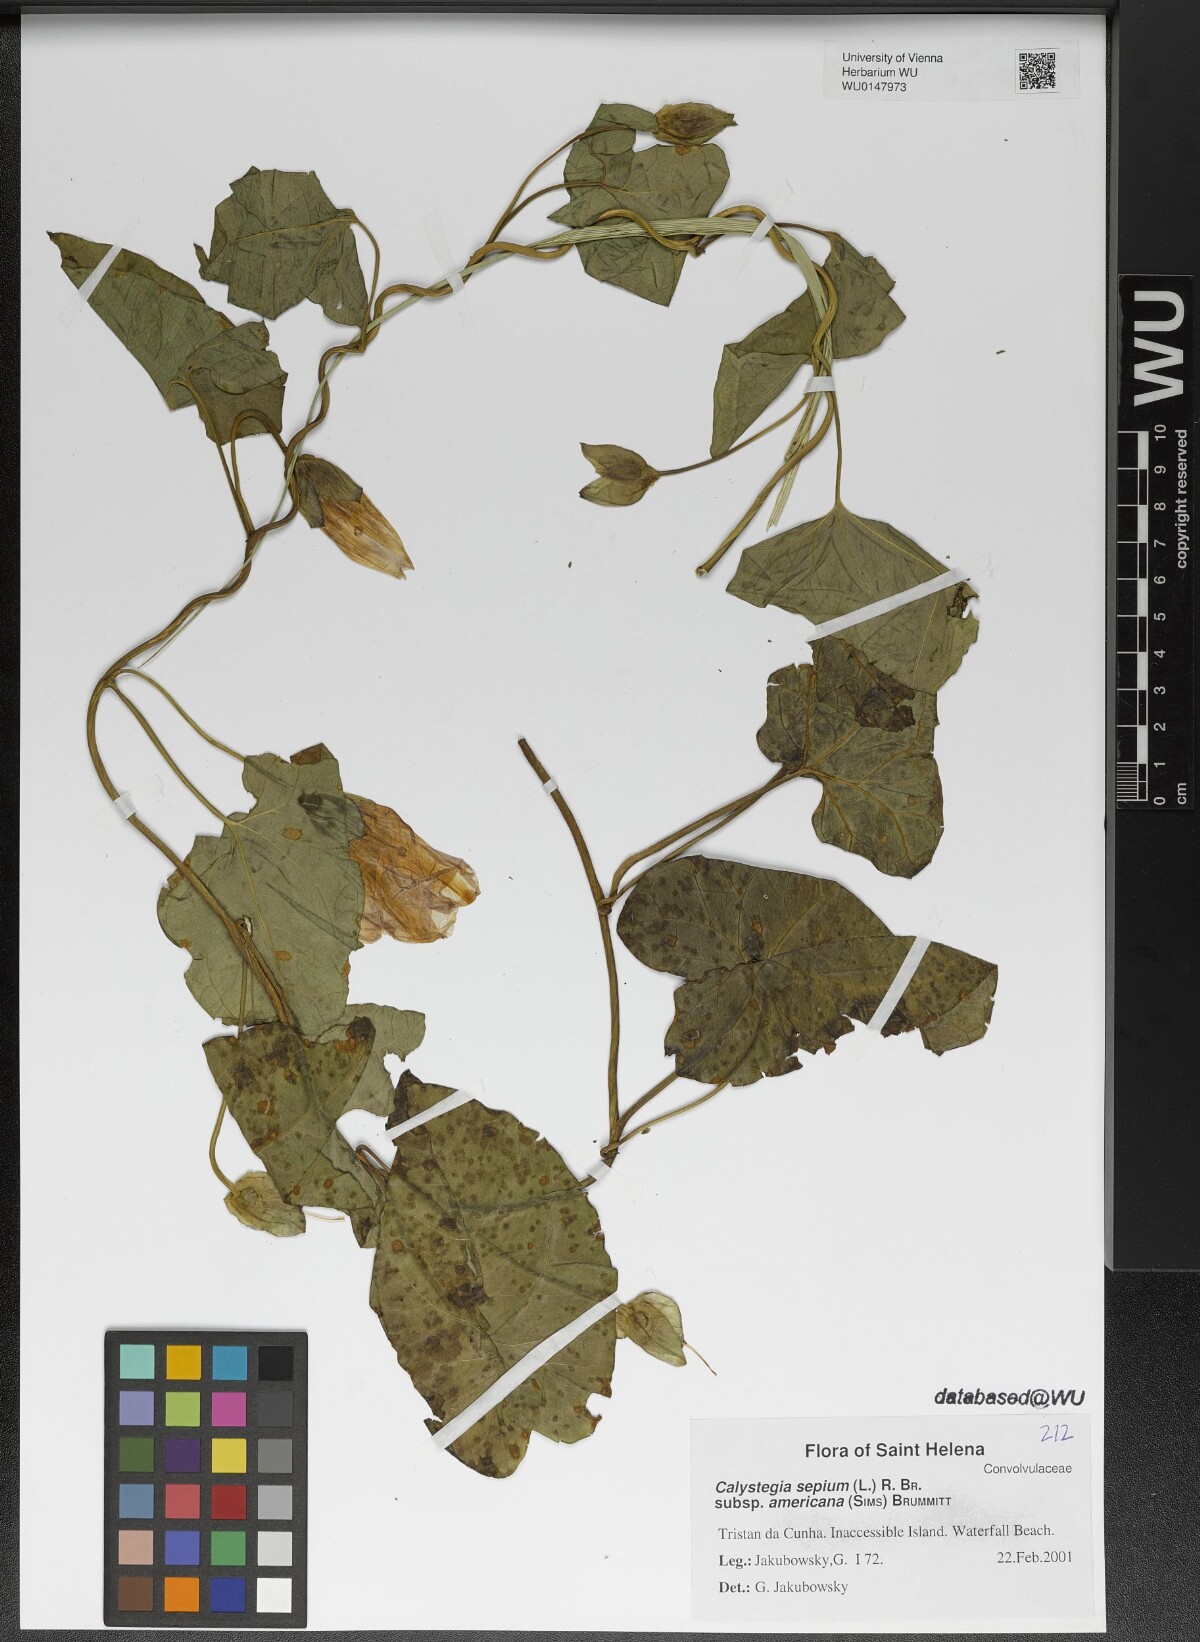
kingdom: Plantae
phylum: Tracheophyta
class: Magnoliopsida
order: Solanales
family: Convolvulaceae
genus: Calystegia
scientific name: Calystegia sepium
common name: Hedge bindweed
